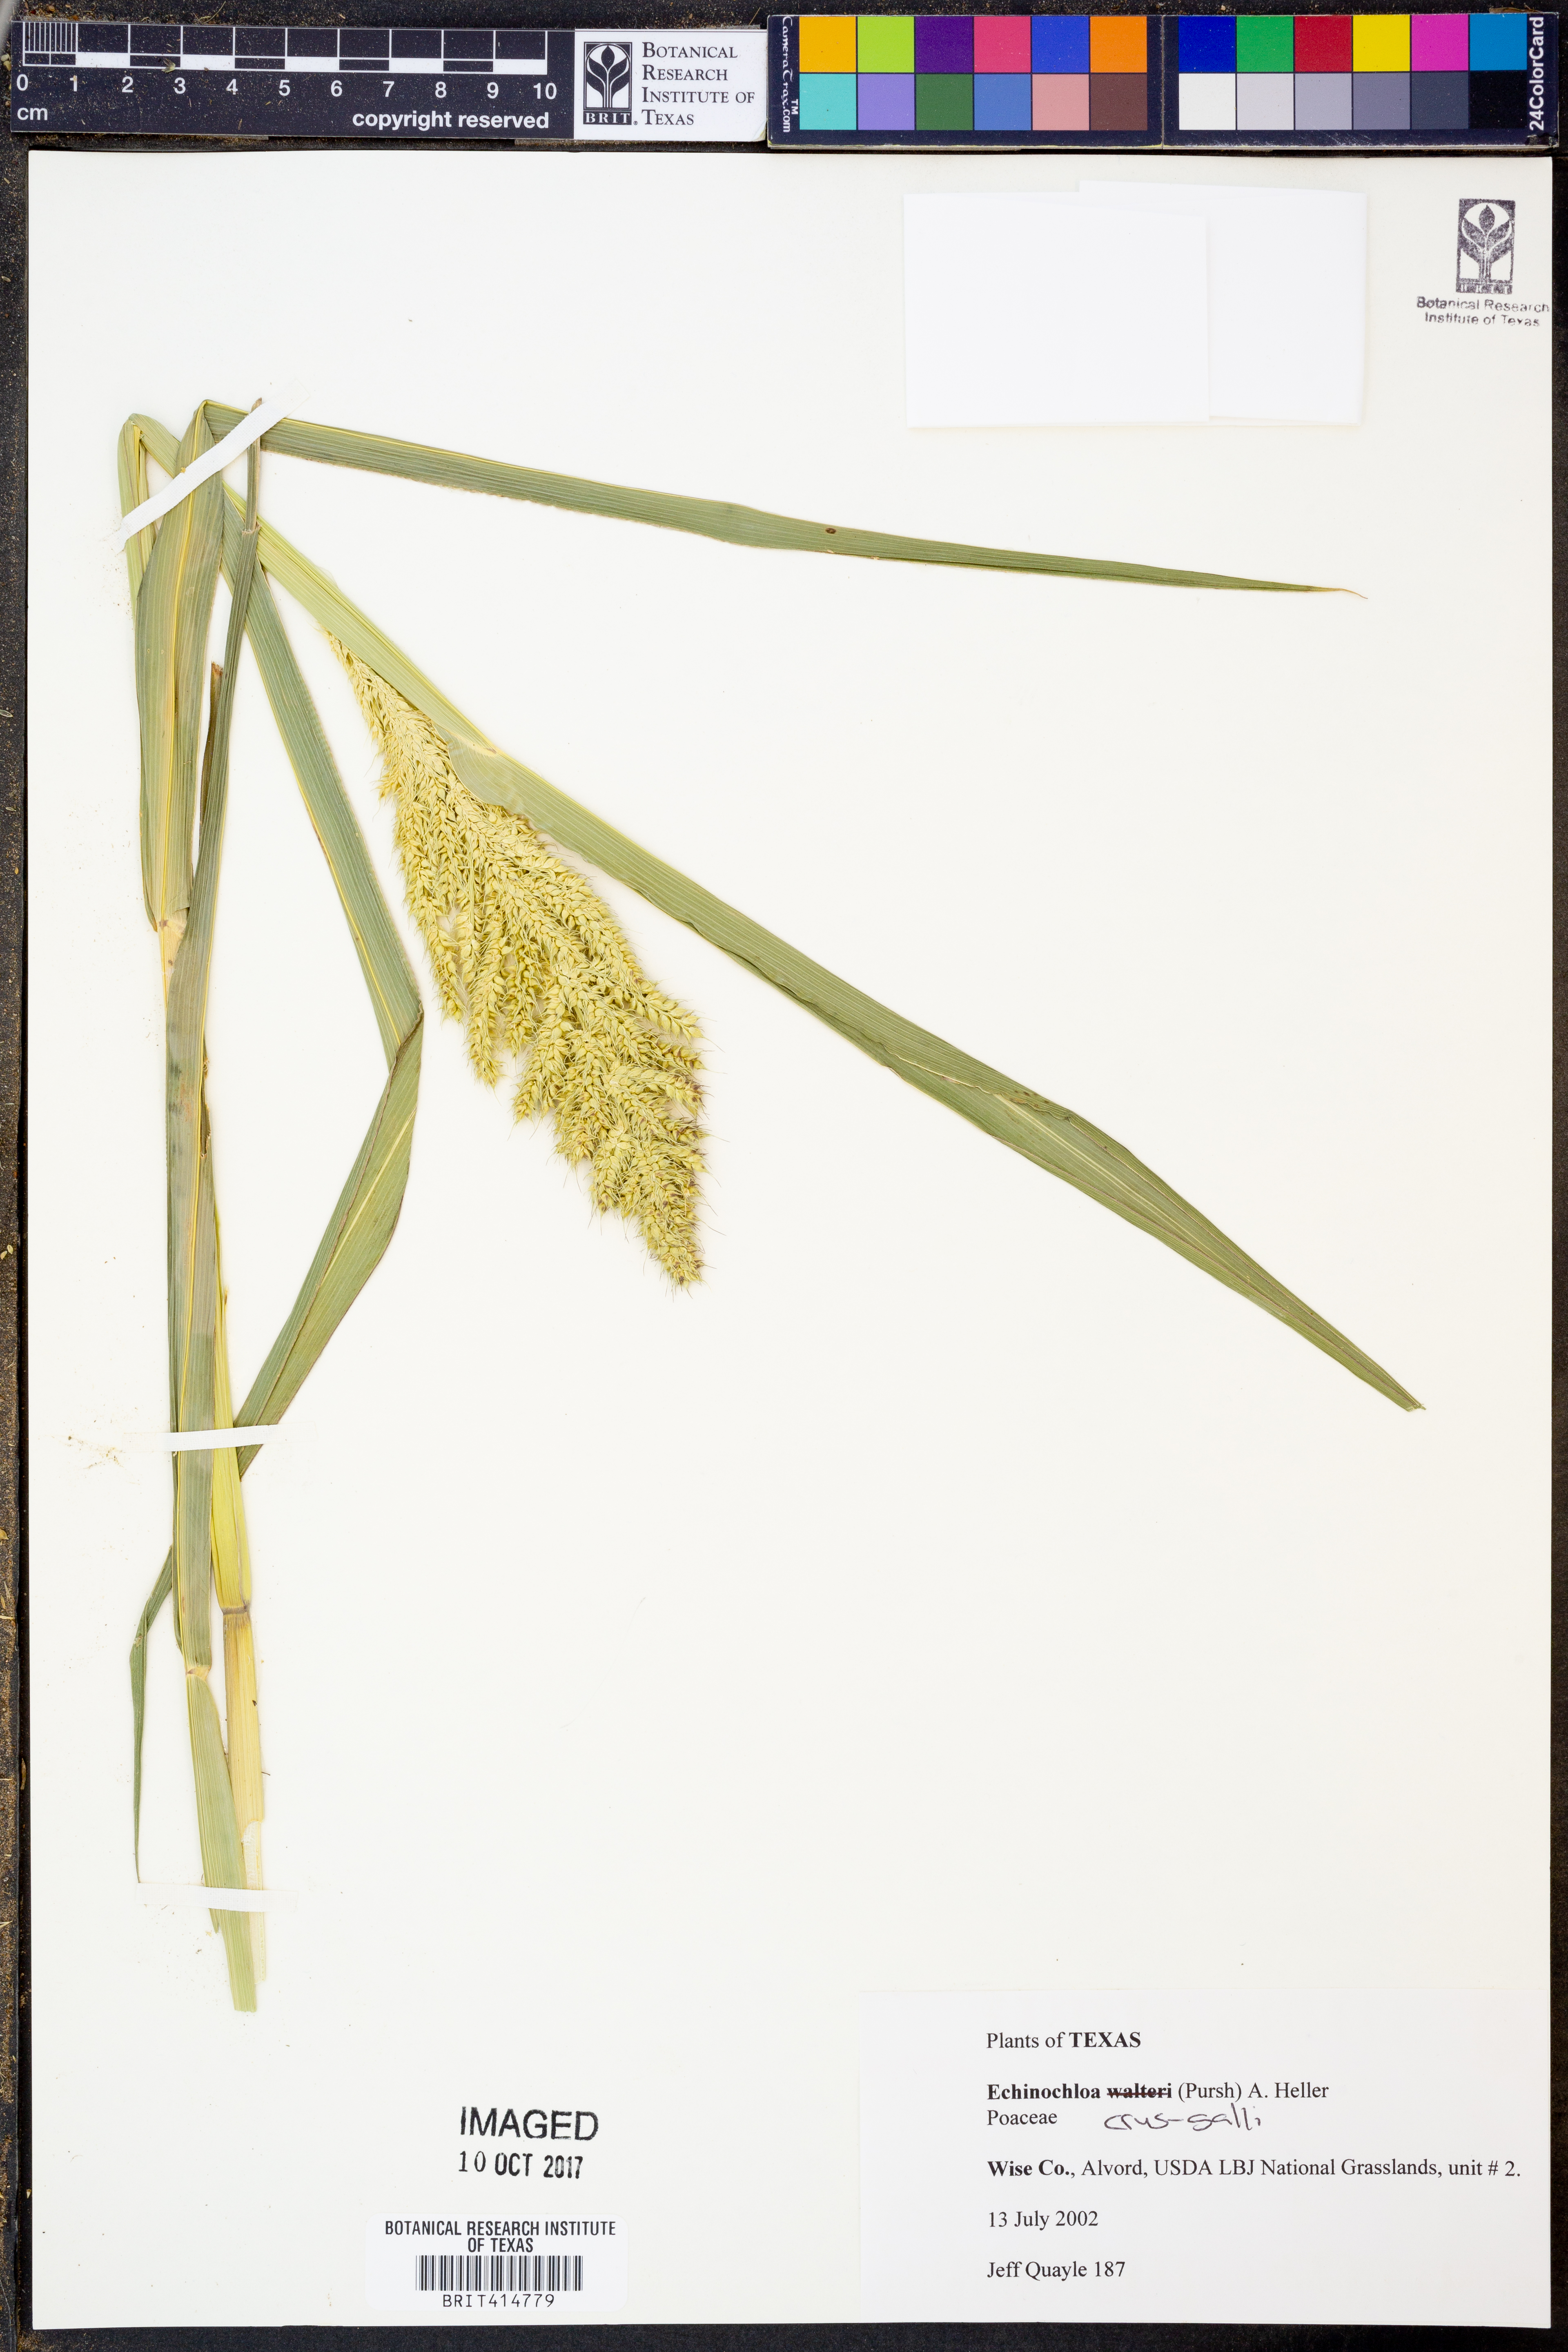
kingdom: Plantae
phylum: Tracheophyta
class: Liliopsida
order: Poales
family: Poaceae
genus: Echinochloa
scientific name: Echinochloa crus-galli
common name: Cockspur
